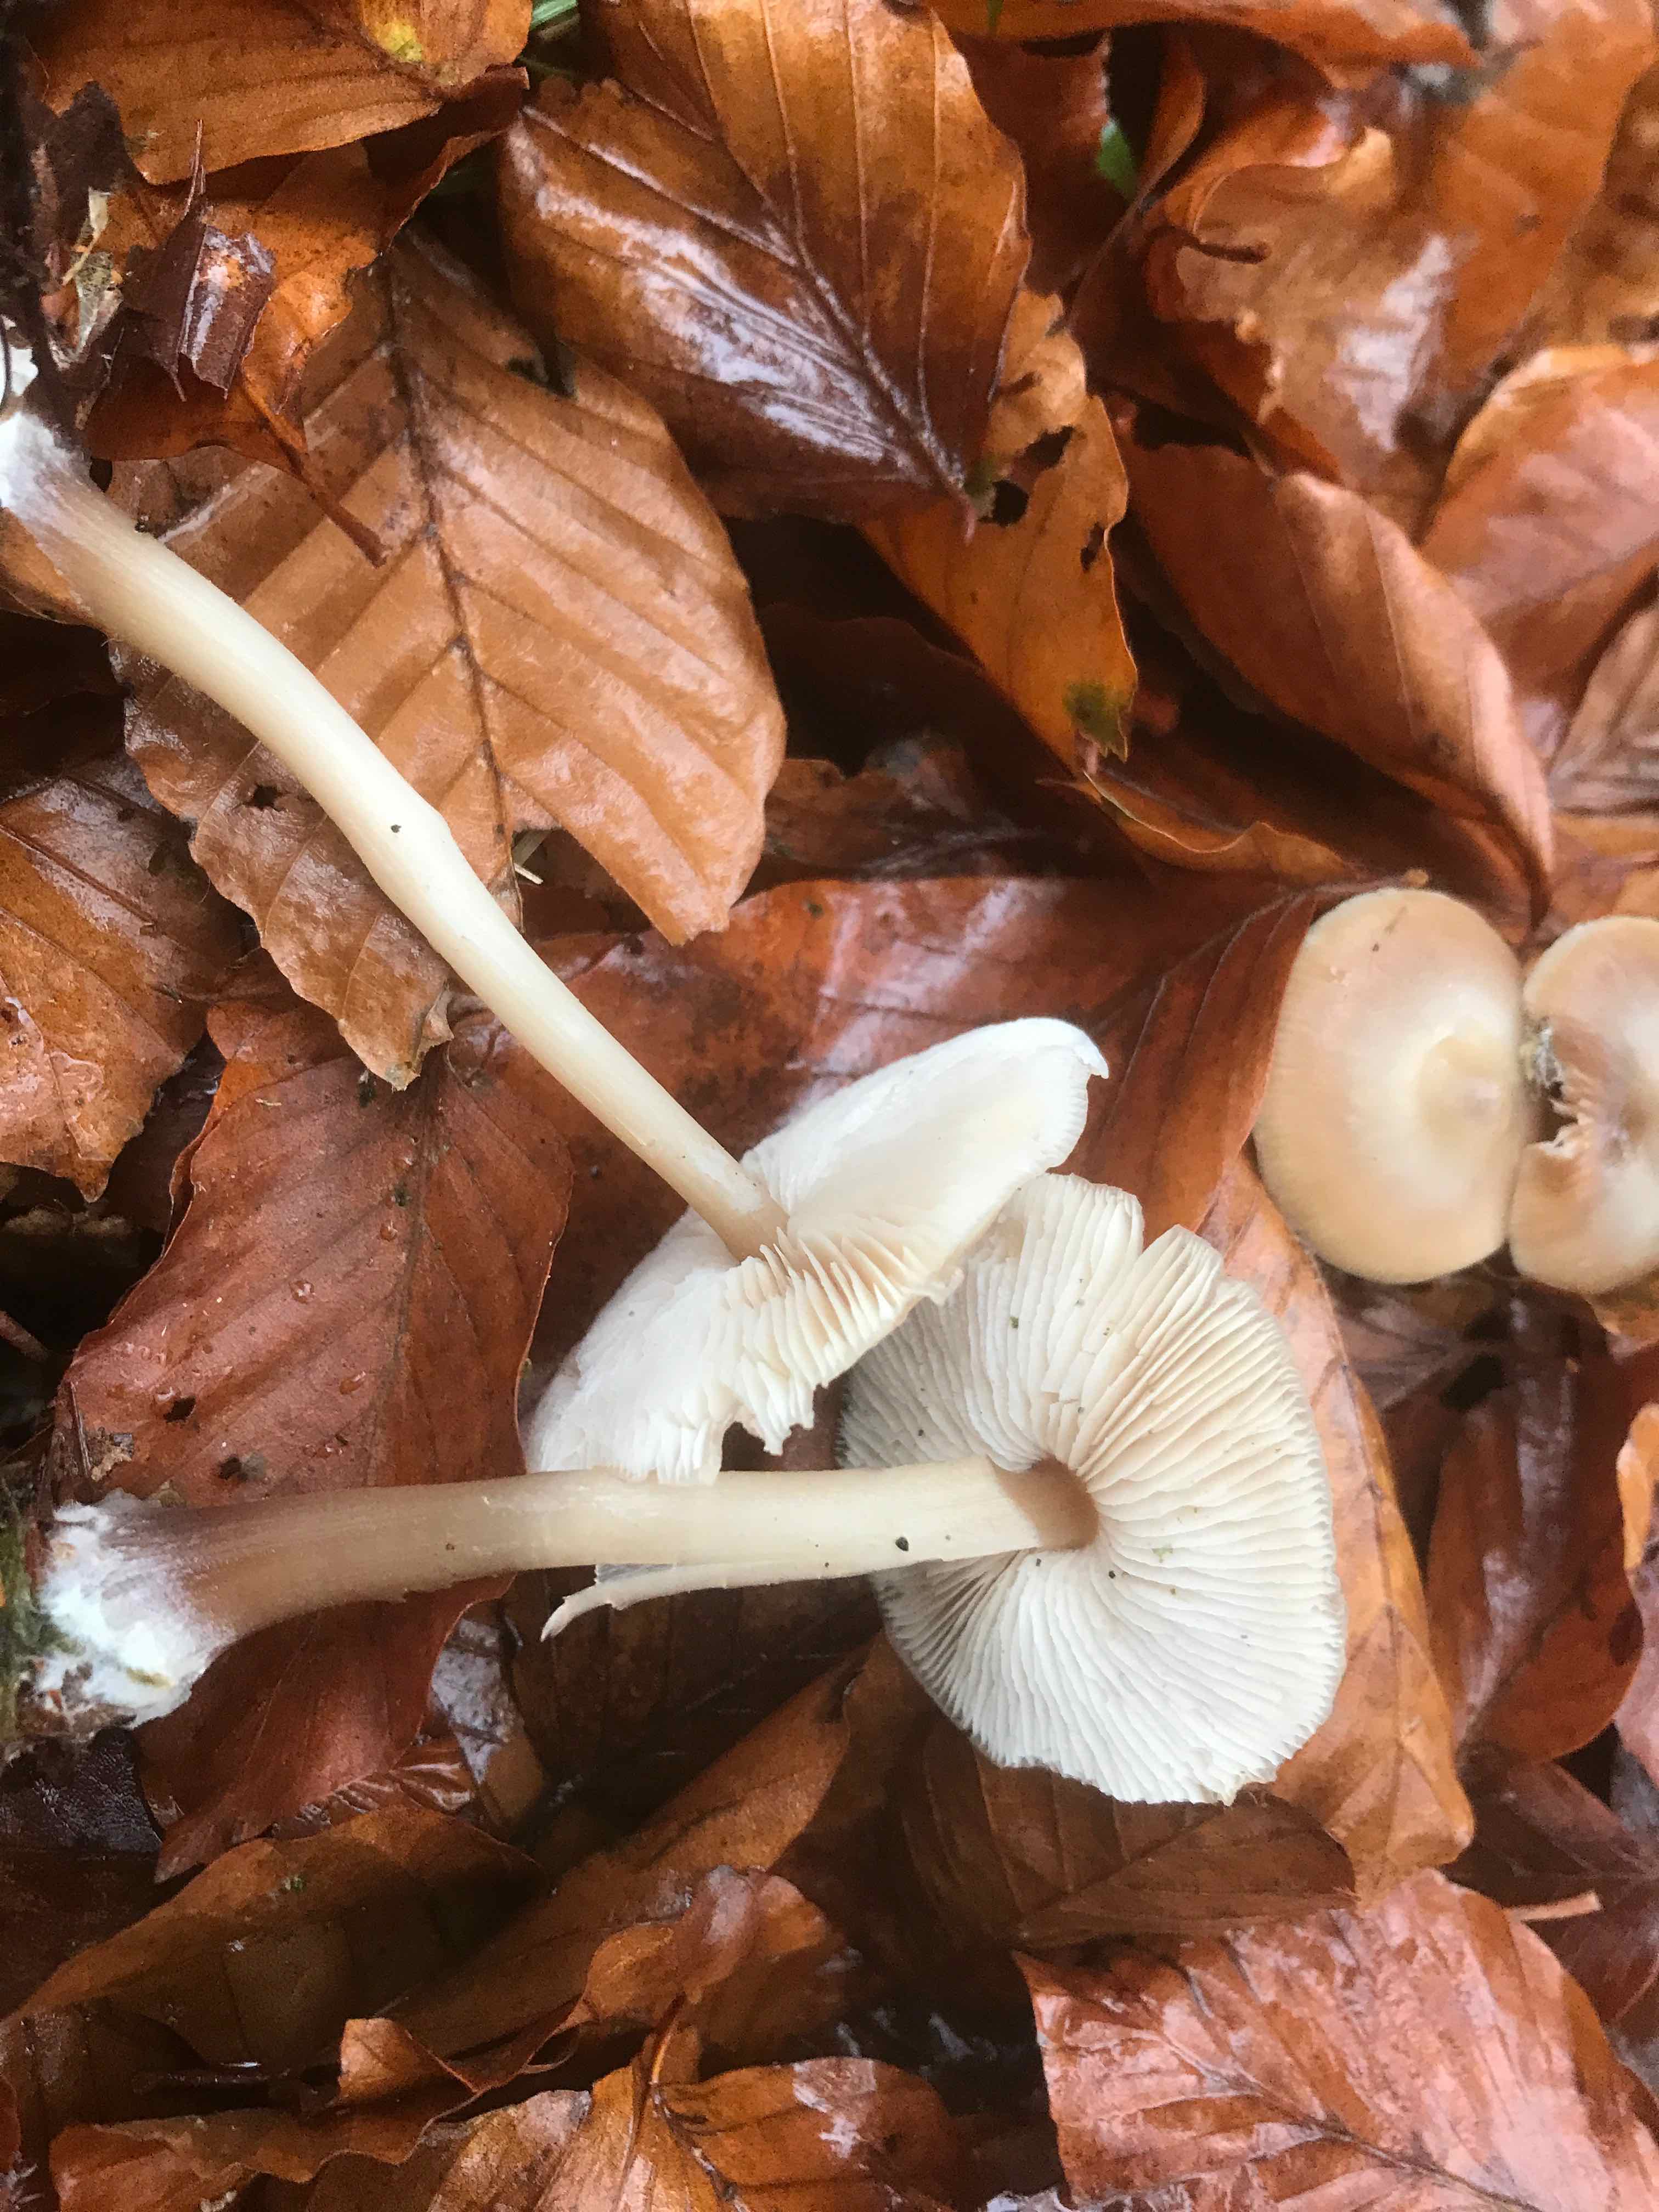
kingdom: Fungi
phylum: Basidiomycota
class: Agaricomycetes
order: Agaricales
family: Omphalotaceae
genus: Rhodocollybia
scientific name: Rhodocollybia asema
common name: horngrå fladhat
